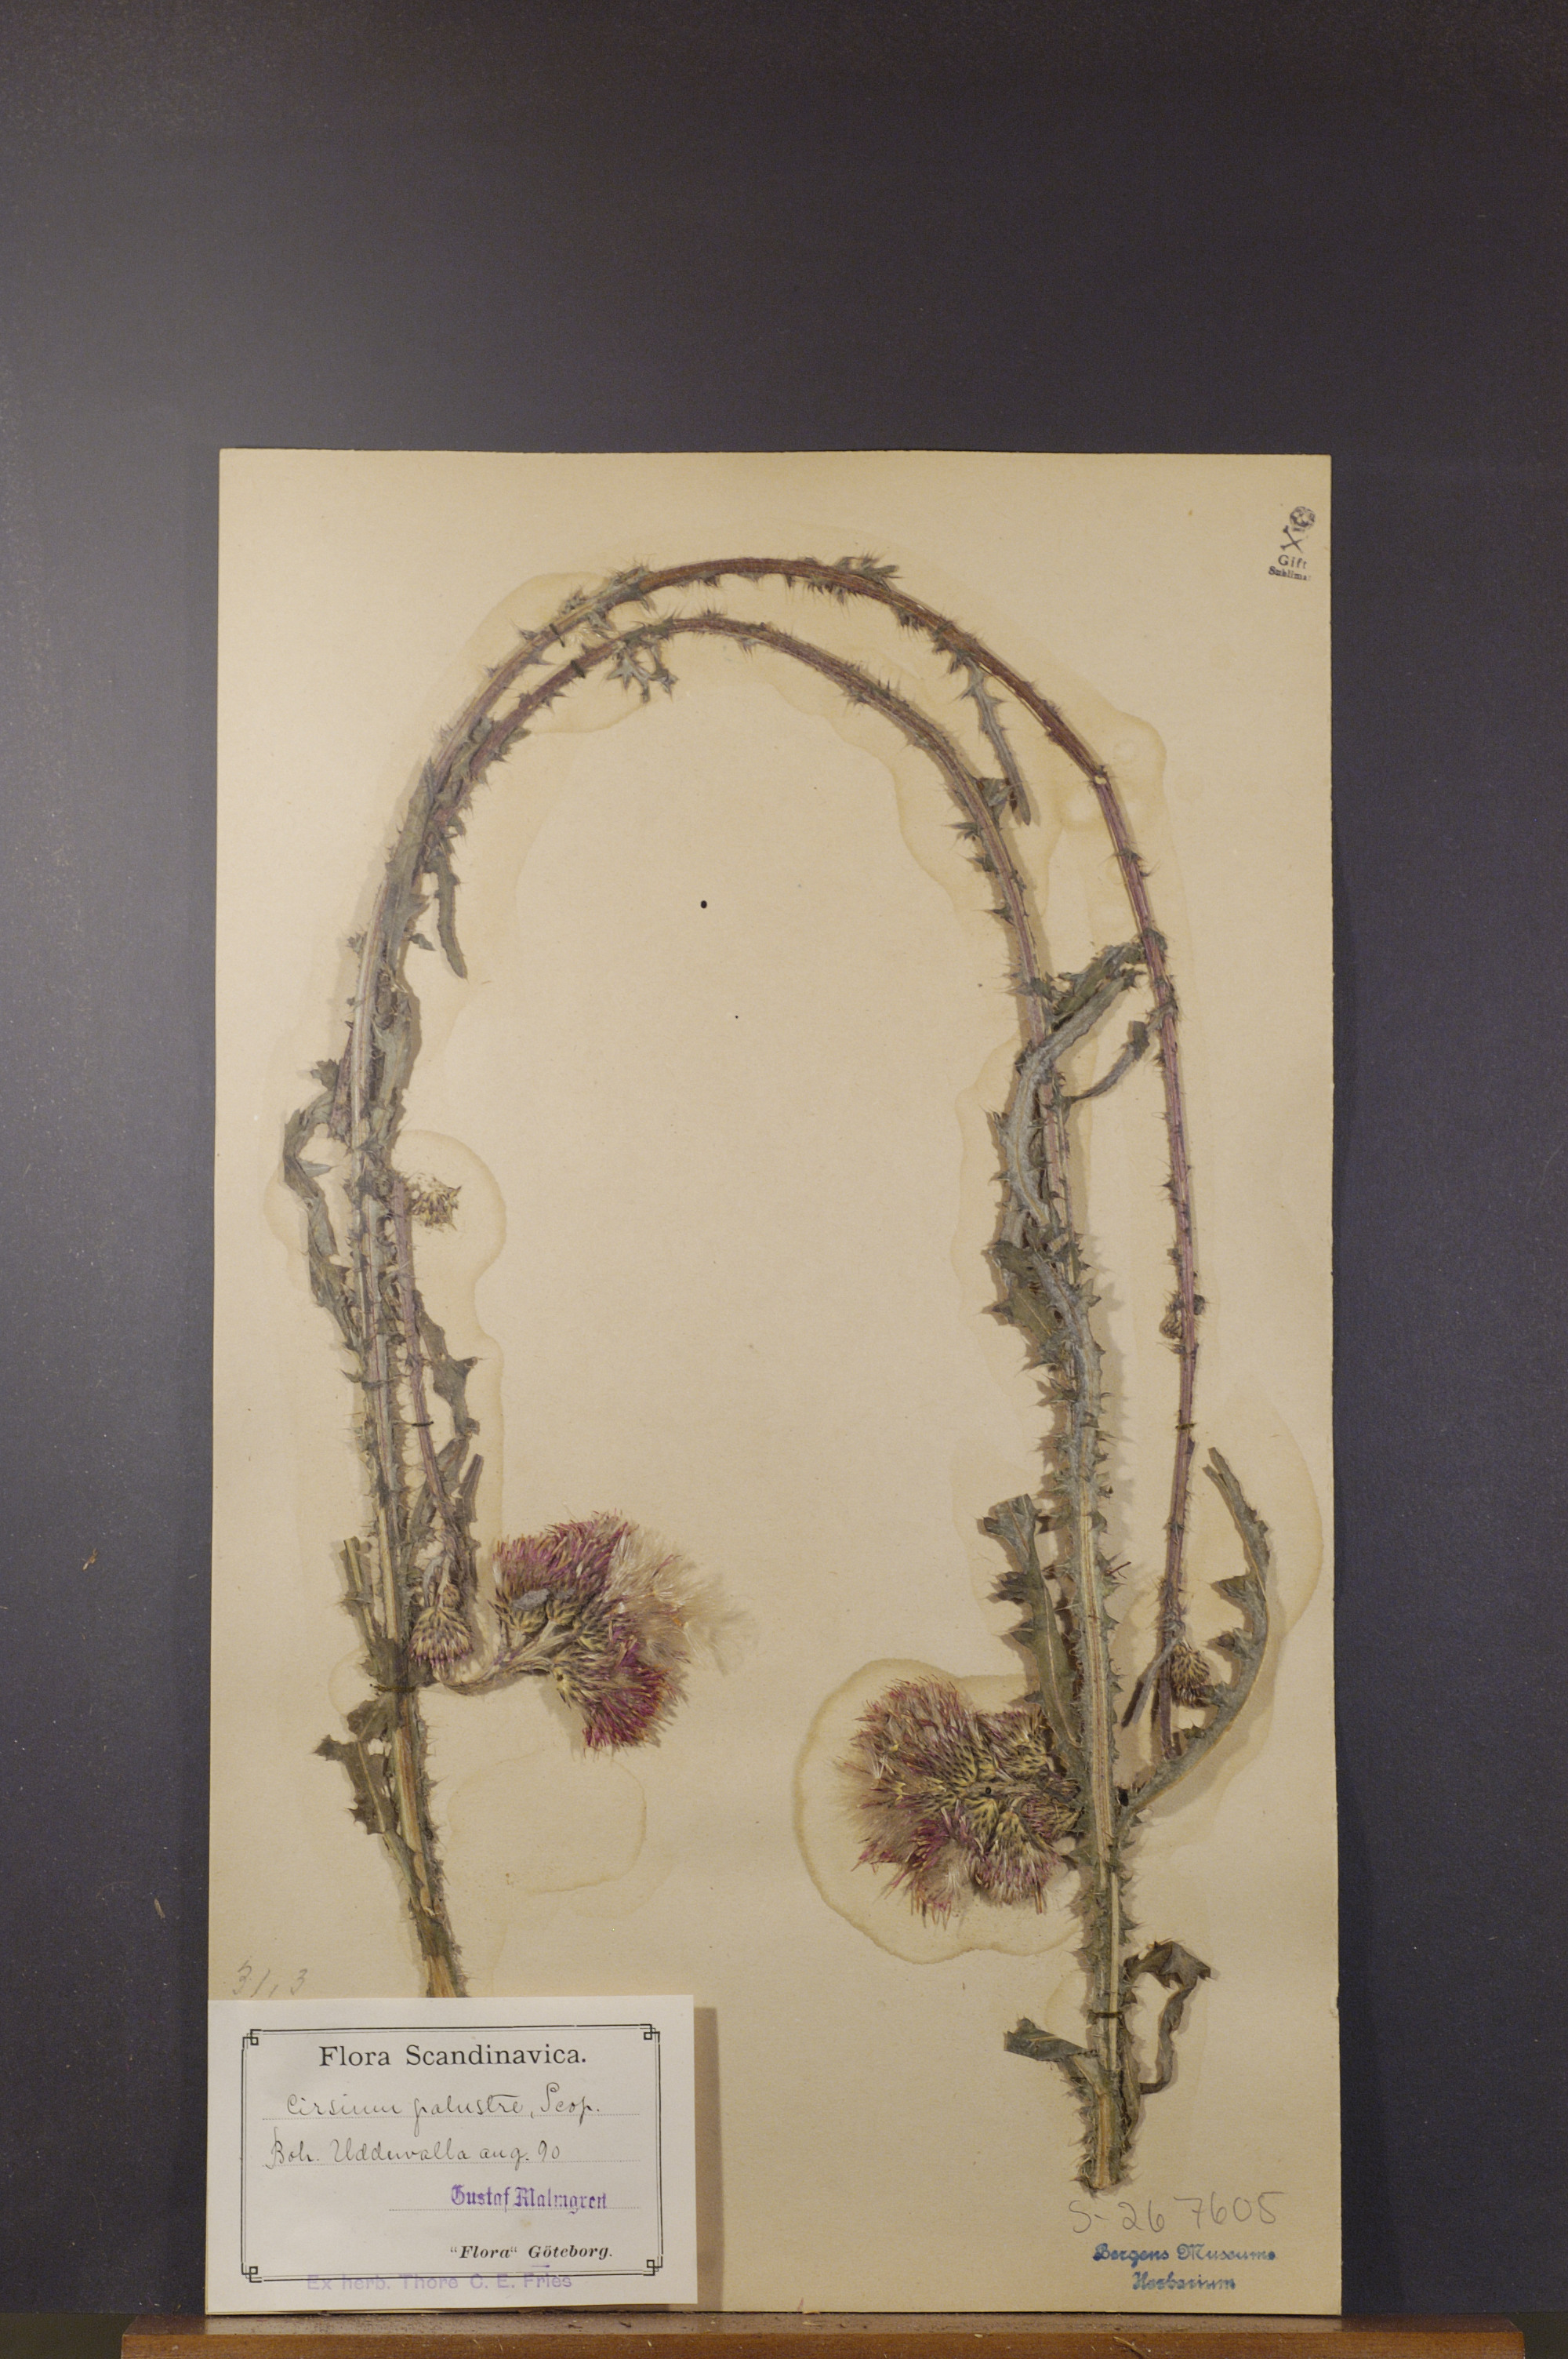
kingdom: Plantae
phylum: Tracheophyta
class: Magnoliopsida
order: Asterales
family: Asteraceae
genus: Cirsium
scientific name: Cirsium palustre
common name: Marsh thistle
